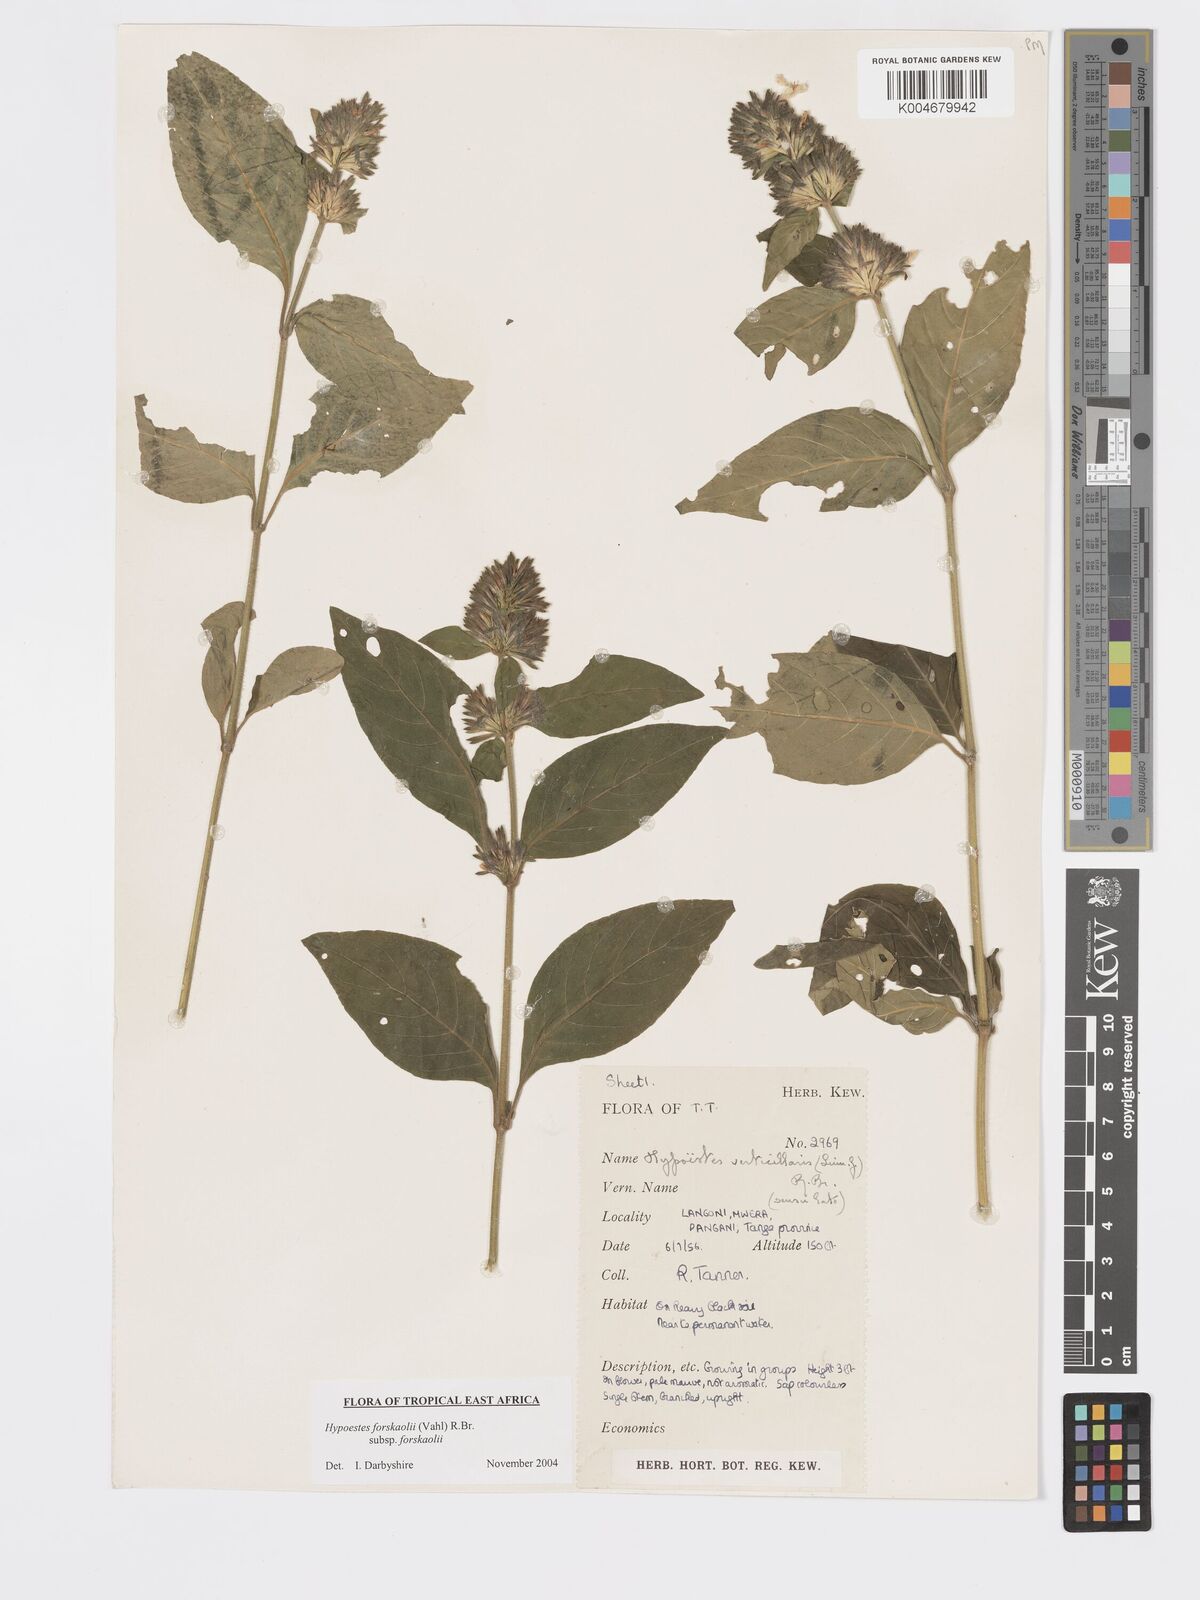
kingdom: Plantae
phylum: Tracheophyta
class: Magnoliopsida
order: Lamiales
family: Acanthaceae
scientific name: Acanthaceae
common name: Acanthaceae
